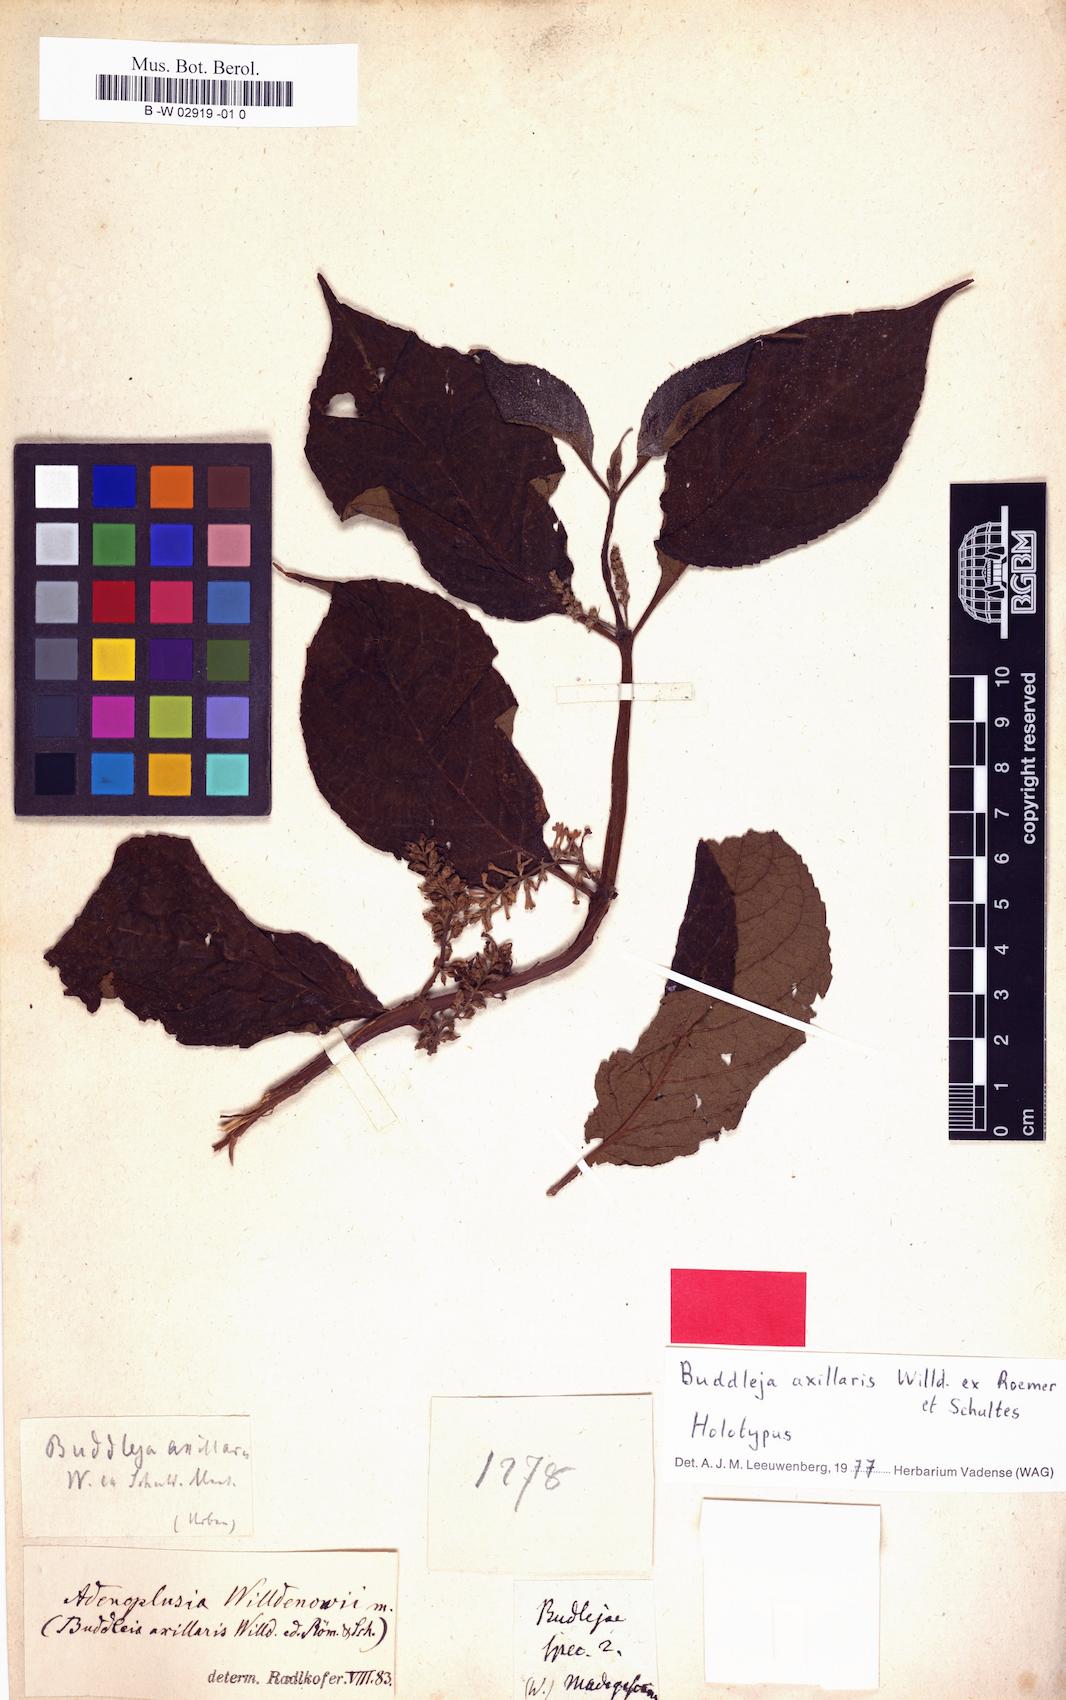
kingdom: Plantae
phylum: Tracheophyta
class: Magnoliopsida
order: Lamiales
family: Scrophulariaceae
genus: Buddleja
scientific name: Buddleja
